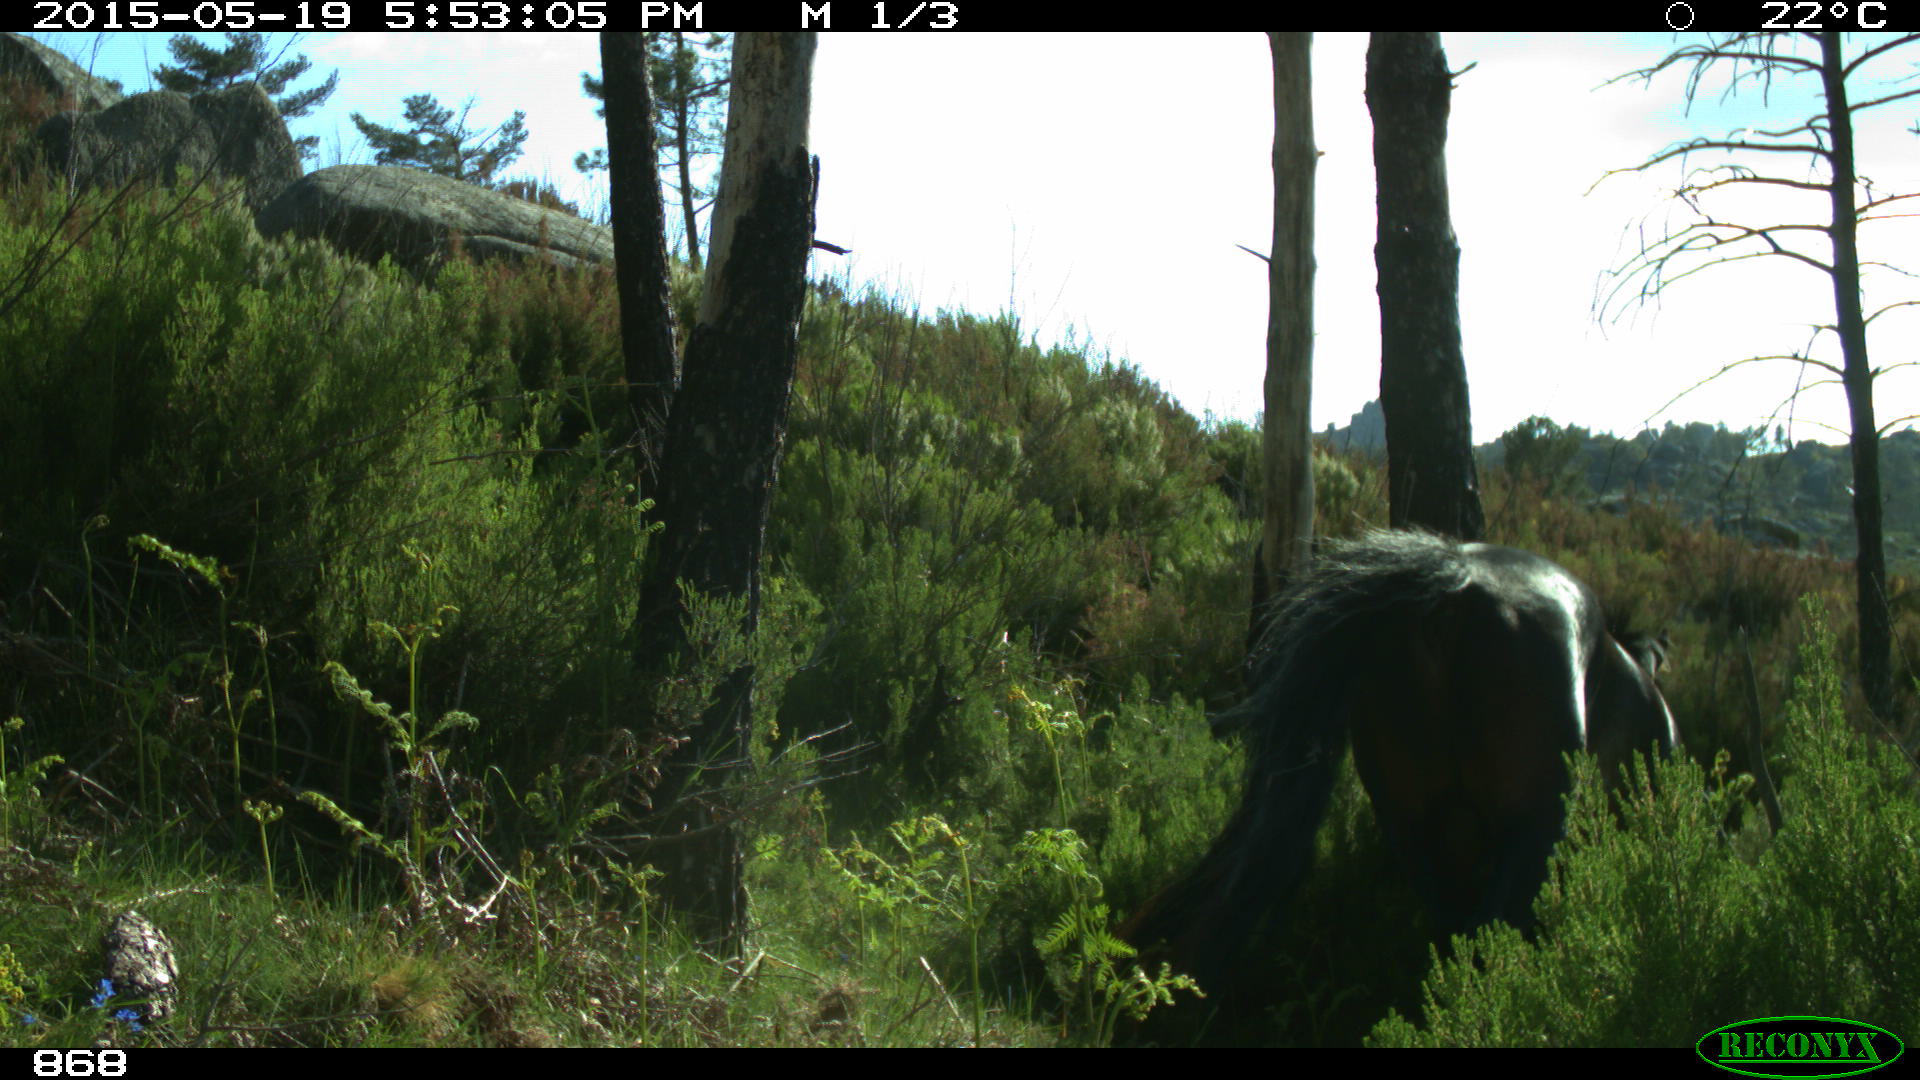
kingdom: Animalia
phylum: Chordata
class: Mammalia
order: Perissodactyla
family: Equidae
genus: Equus
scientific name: Equus caballus
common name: Horse
